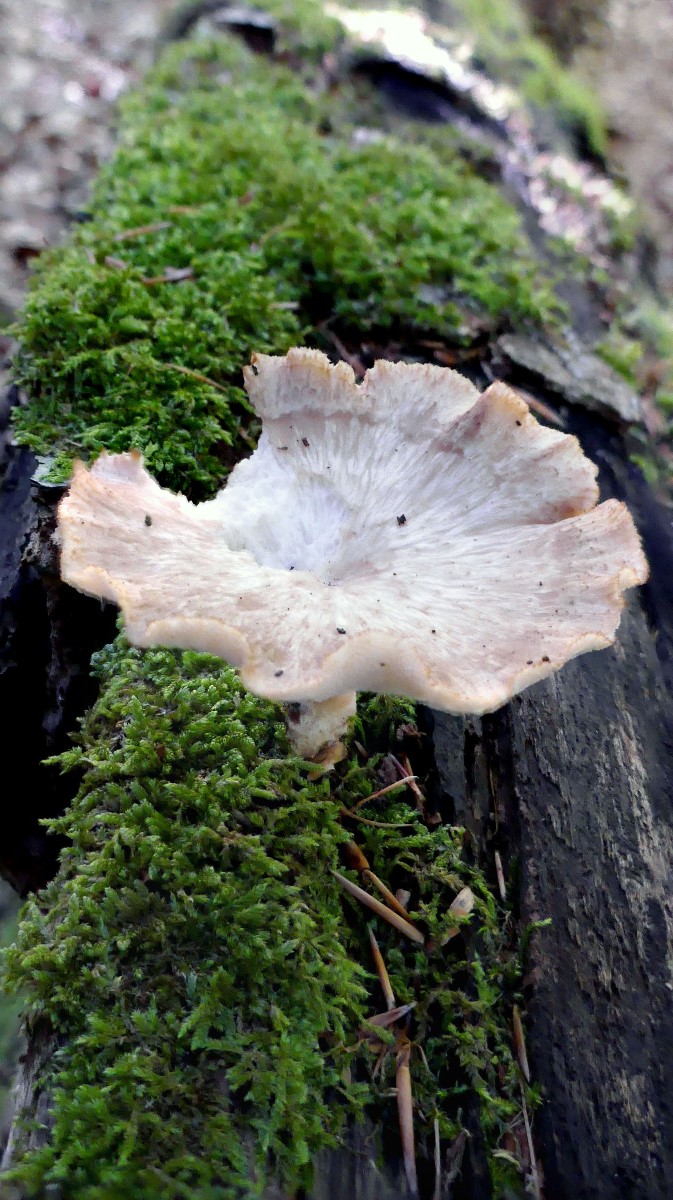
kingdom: Fungi
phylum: Basidiomycota
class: Agaricomycetes
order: Polyporales
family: Polyporaceae
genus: Polyporus
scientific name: Polyporus tuberaster
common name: knoldet stilkporesvamp
